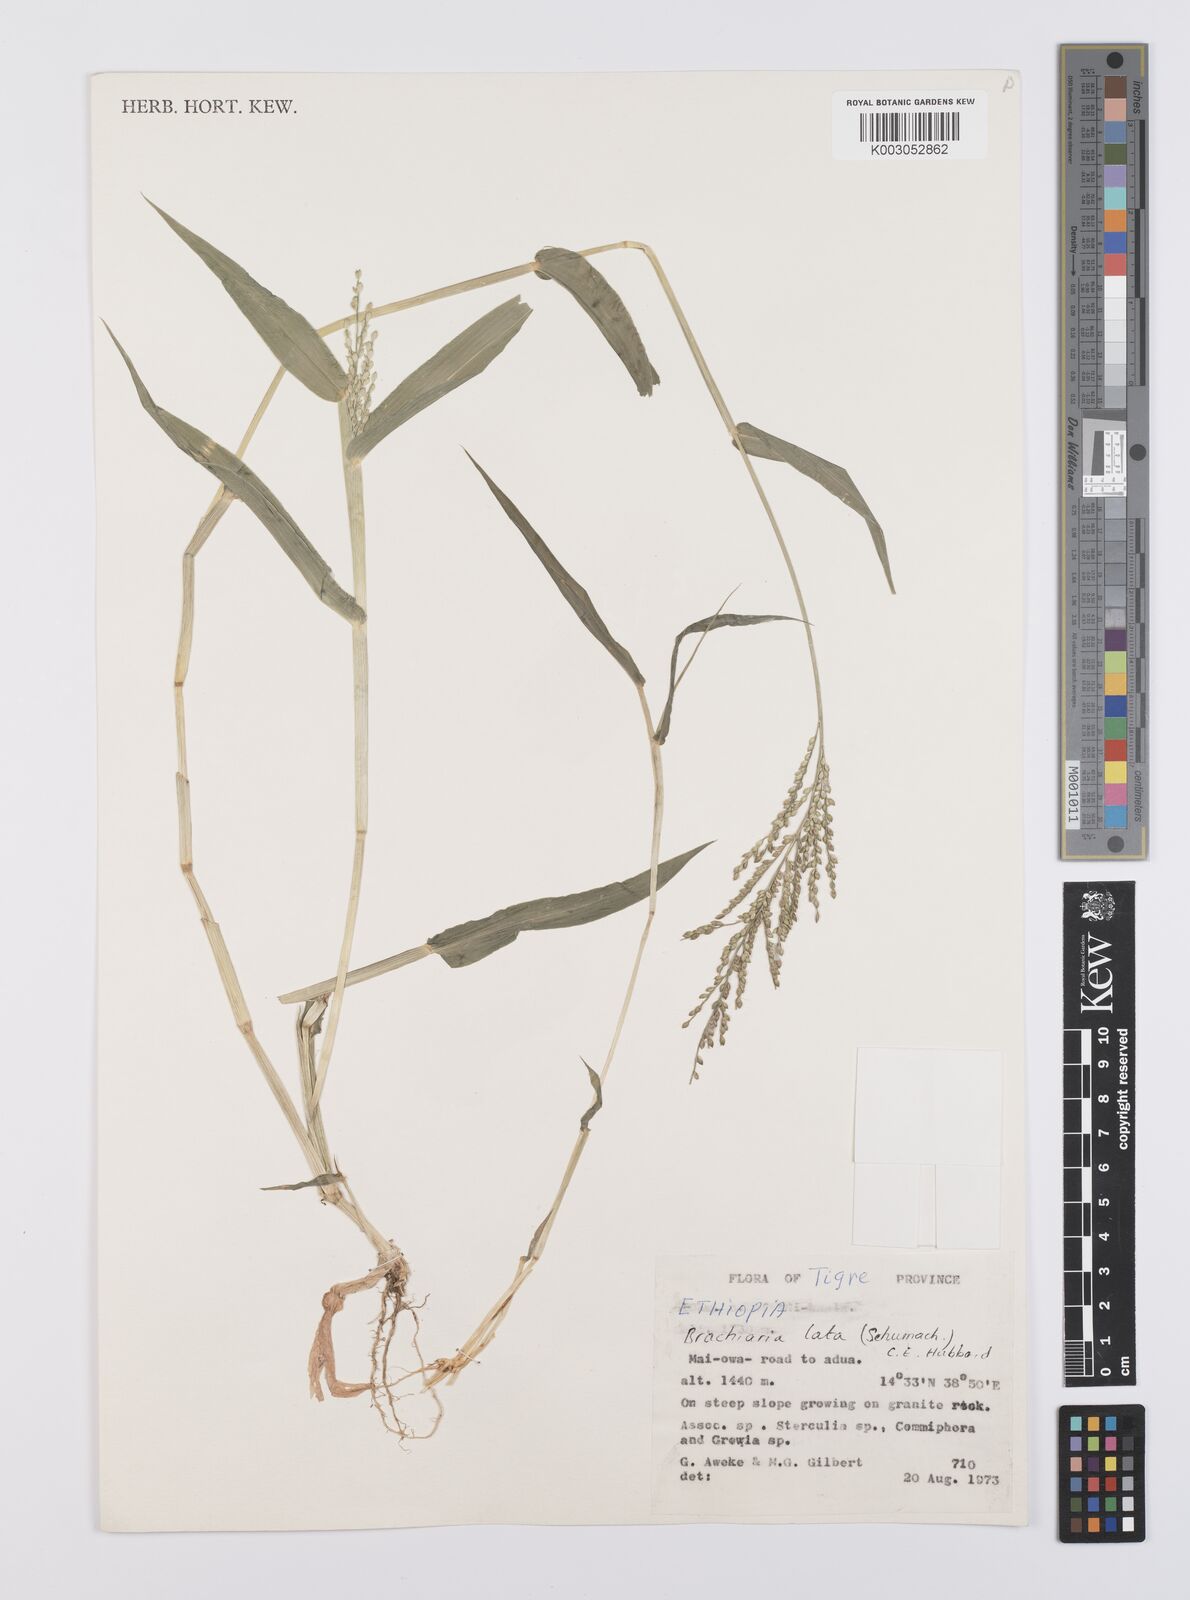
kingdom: Plantae
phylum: Tracheophyta
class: Liliopsida
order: Poales
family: Poaceae
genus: Urochloa
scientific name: Urochloa lata
